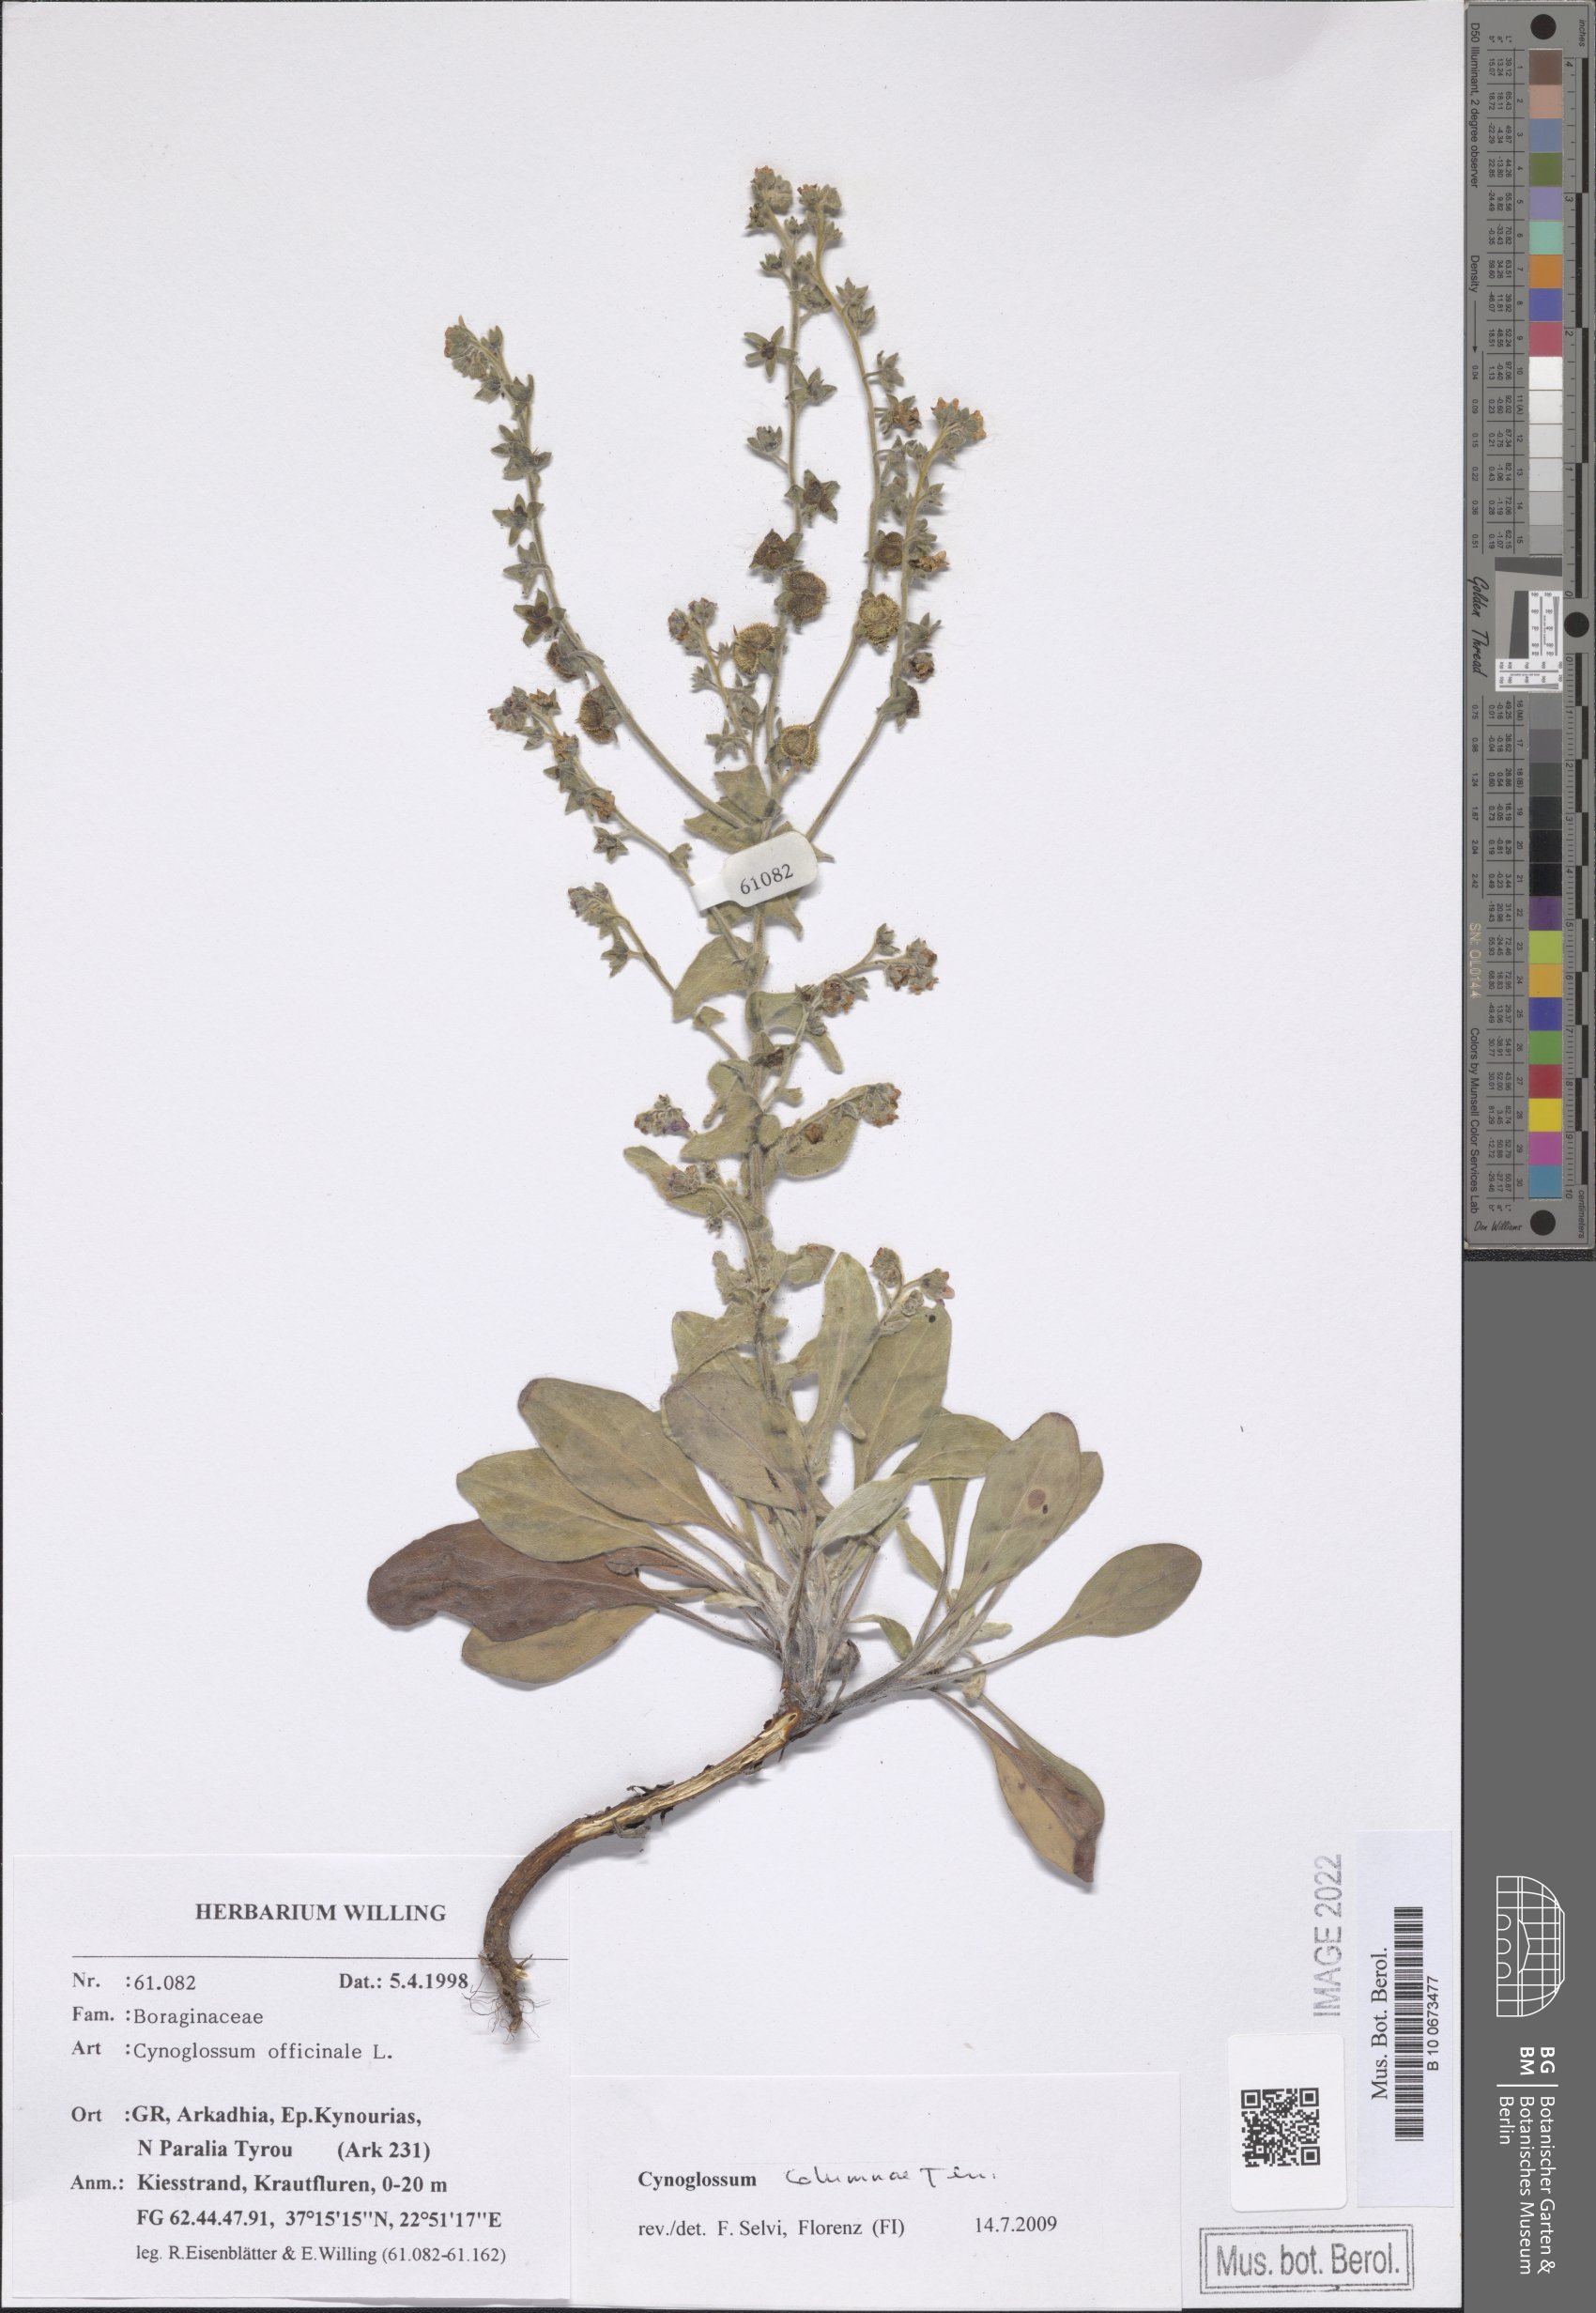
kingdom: Plantae
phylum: Tracheophyta
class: Magnoliopsida
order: Boraginales
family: Boraginaceae
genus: Rindera
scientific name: Rindera columnae
